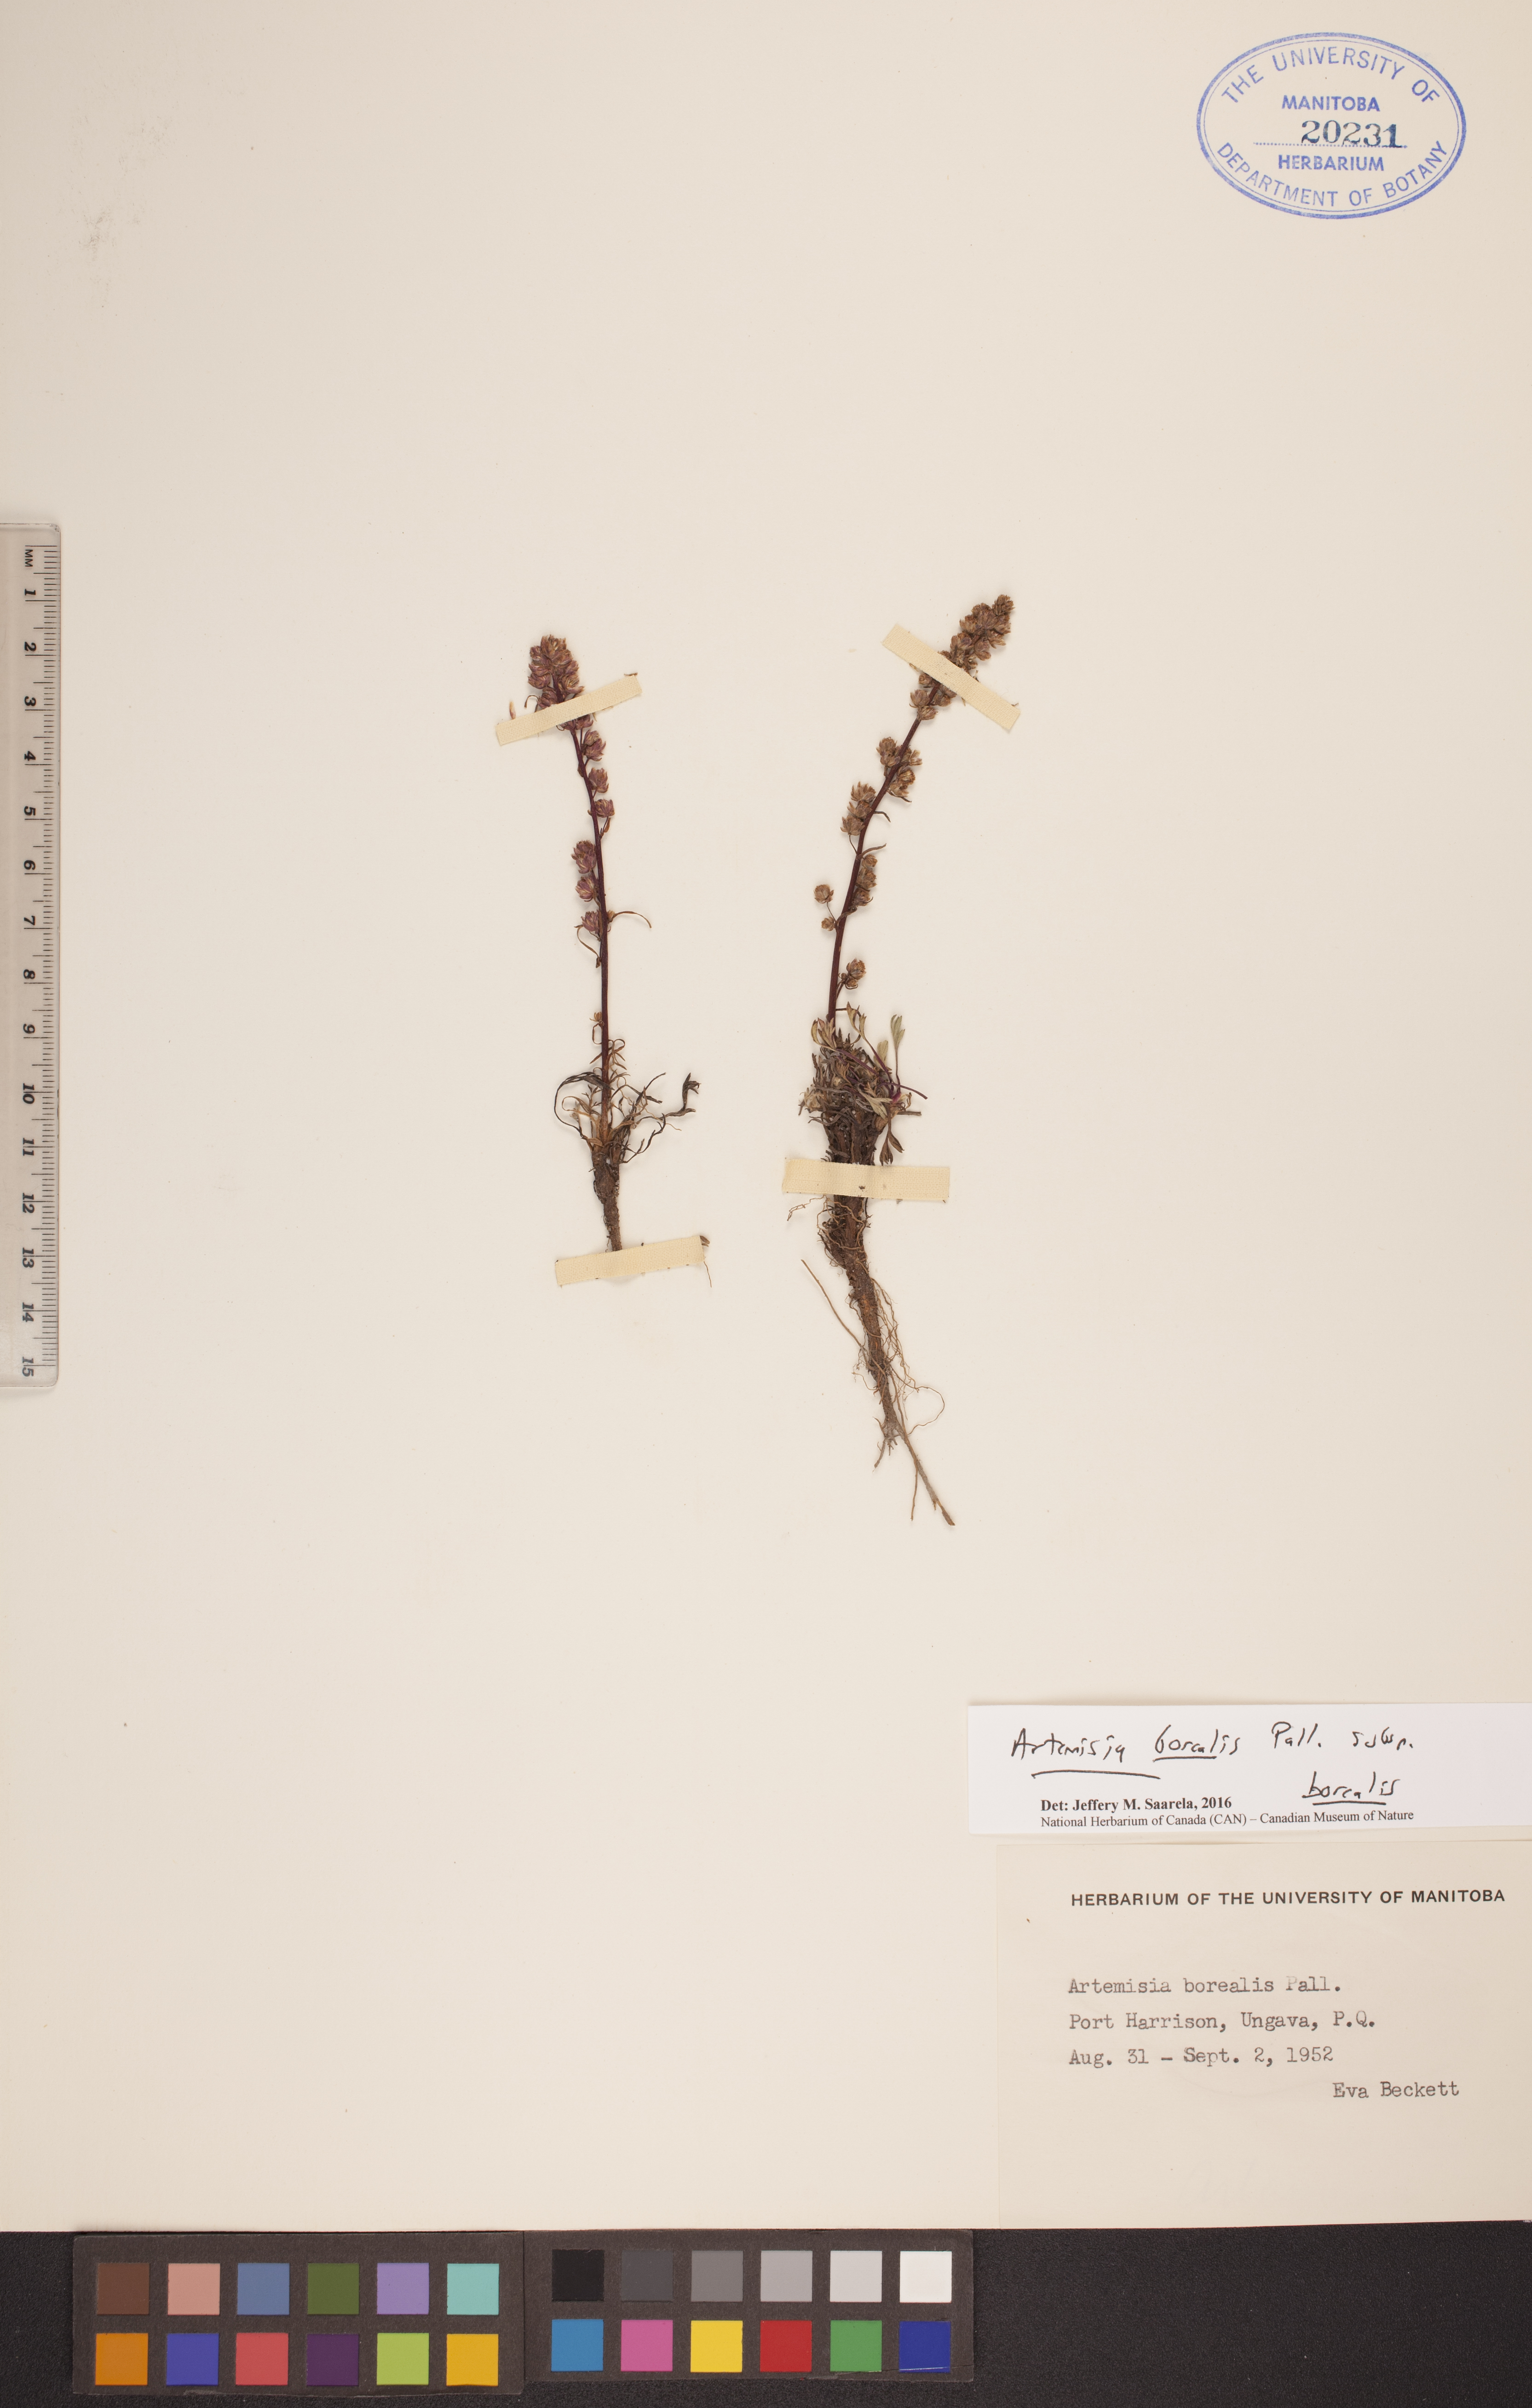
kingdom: Plantae
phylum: Tracheophyta
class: Magnoliopsida
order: Asterales
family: Asteraceae
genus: Artemisia
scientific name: Artemisia borealis
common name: Boreal sage
